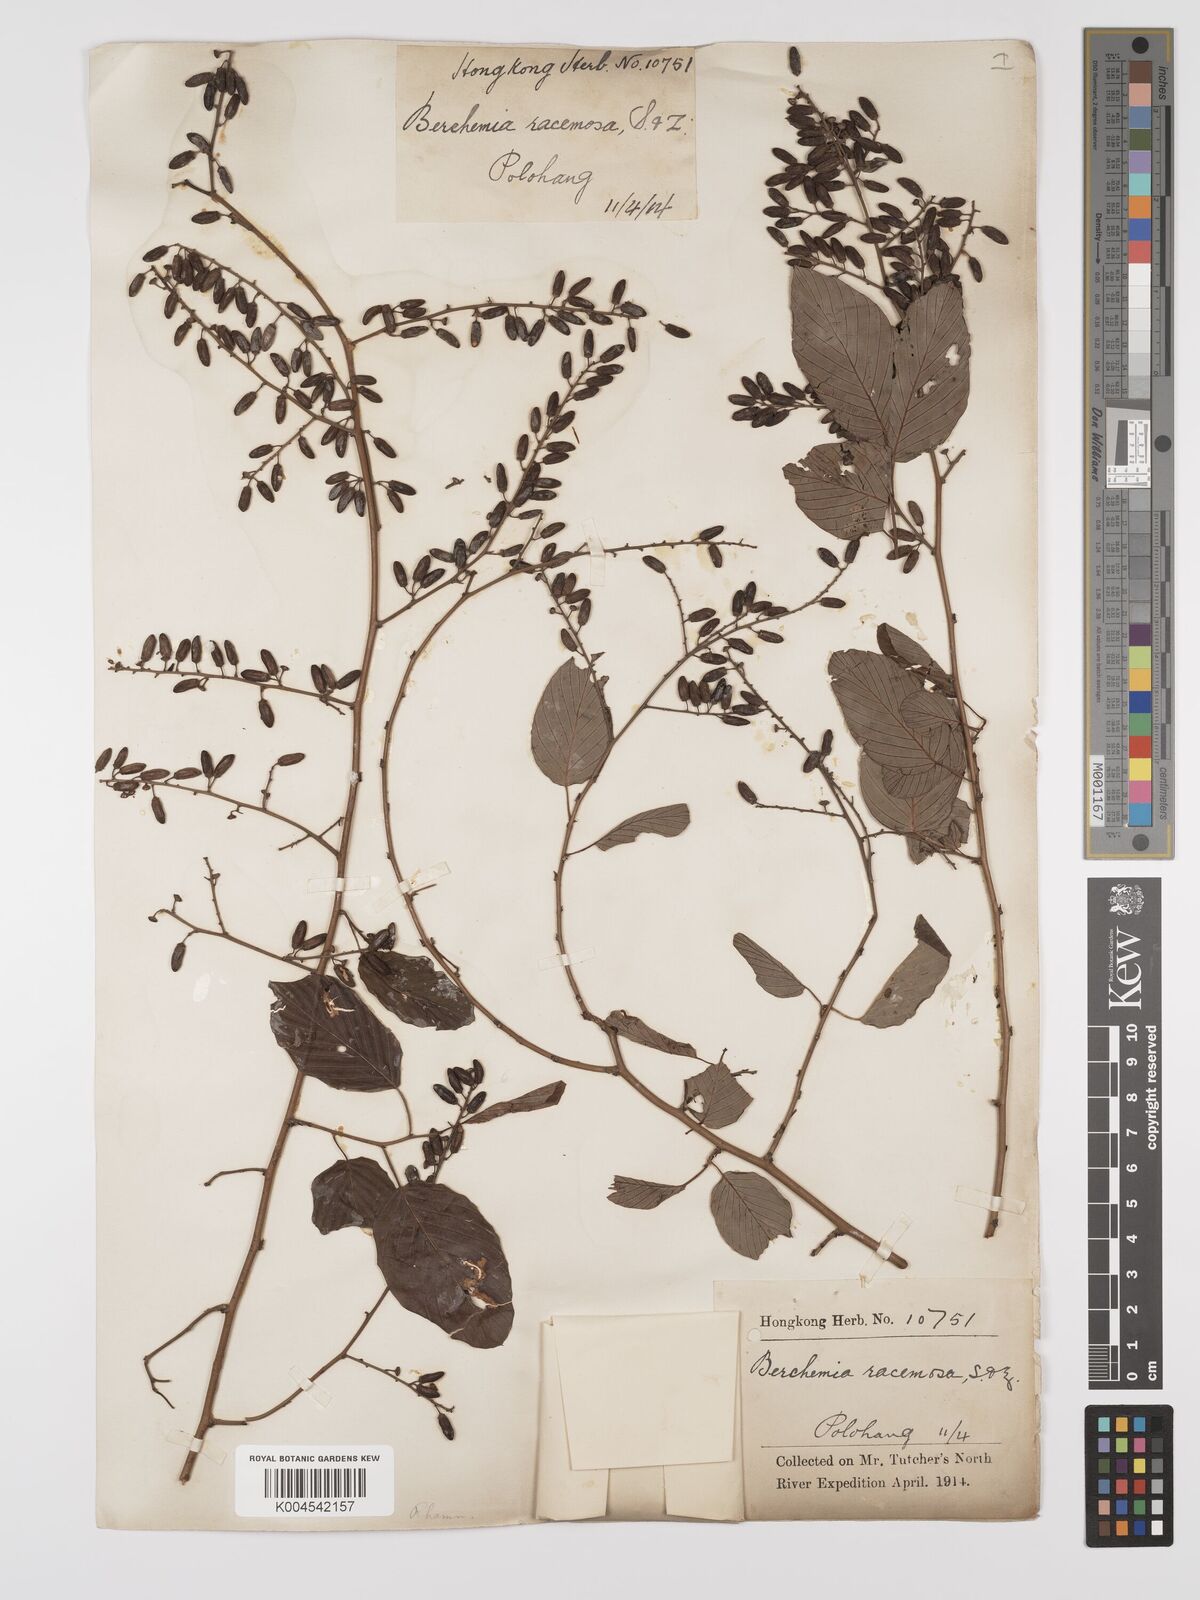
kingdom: Plantae
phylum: Tracheophyta
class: Magnoliopsida
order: Rosales
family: Rhamnaceae
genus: Berchemia
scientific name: Berchemia floribunda
